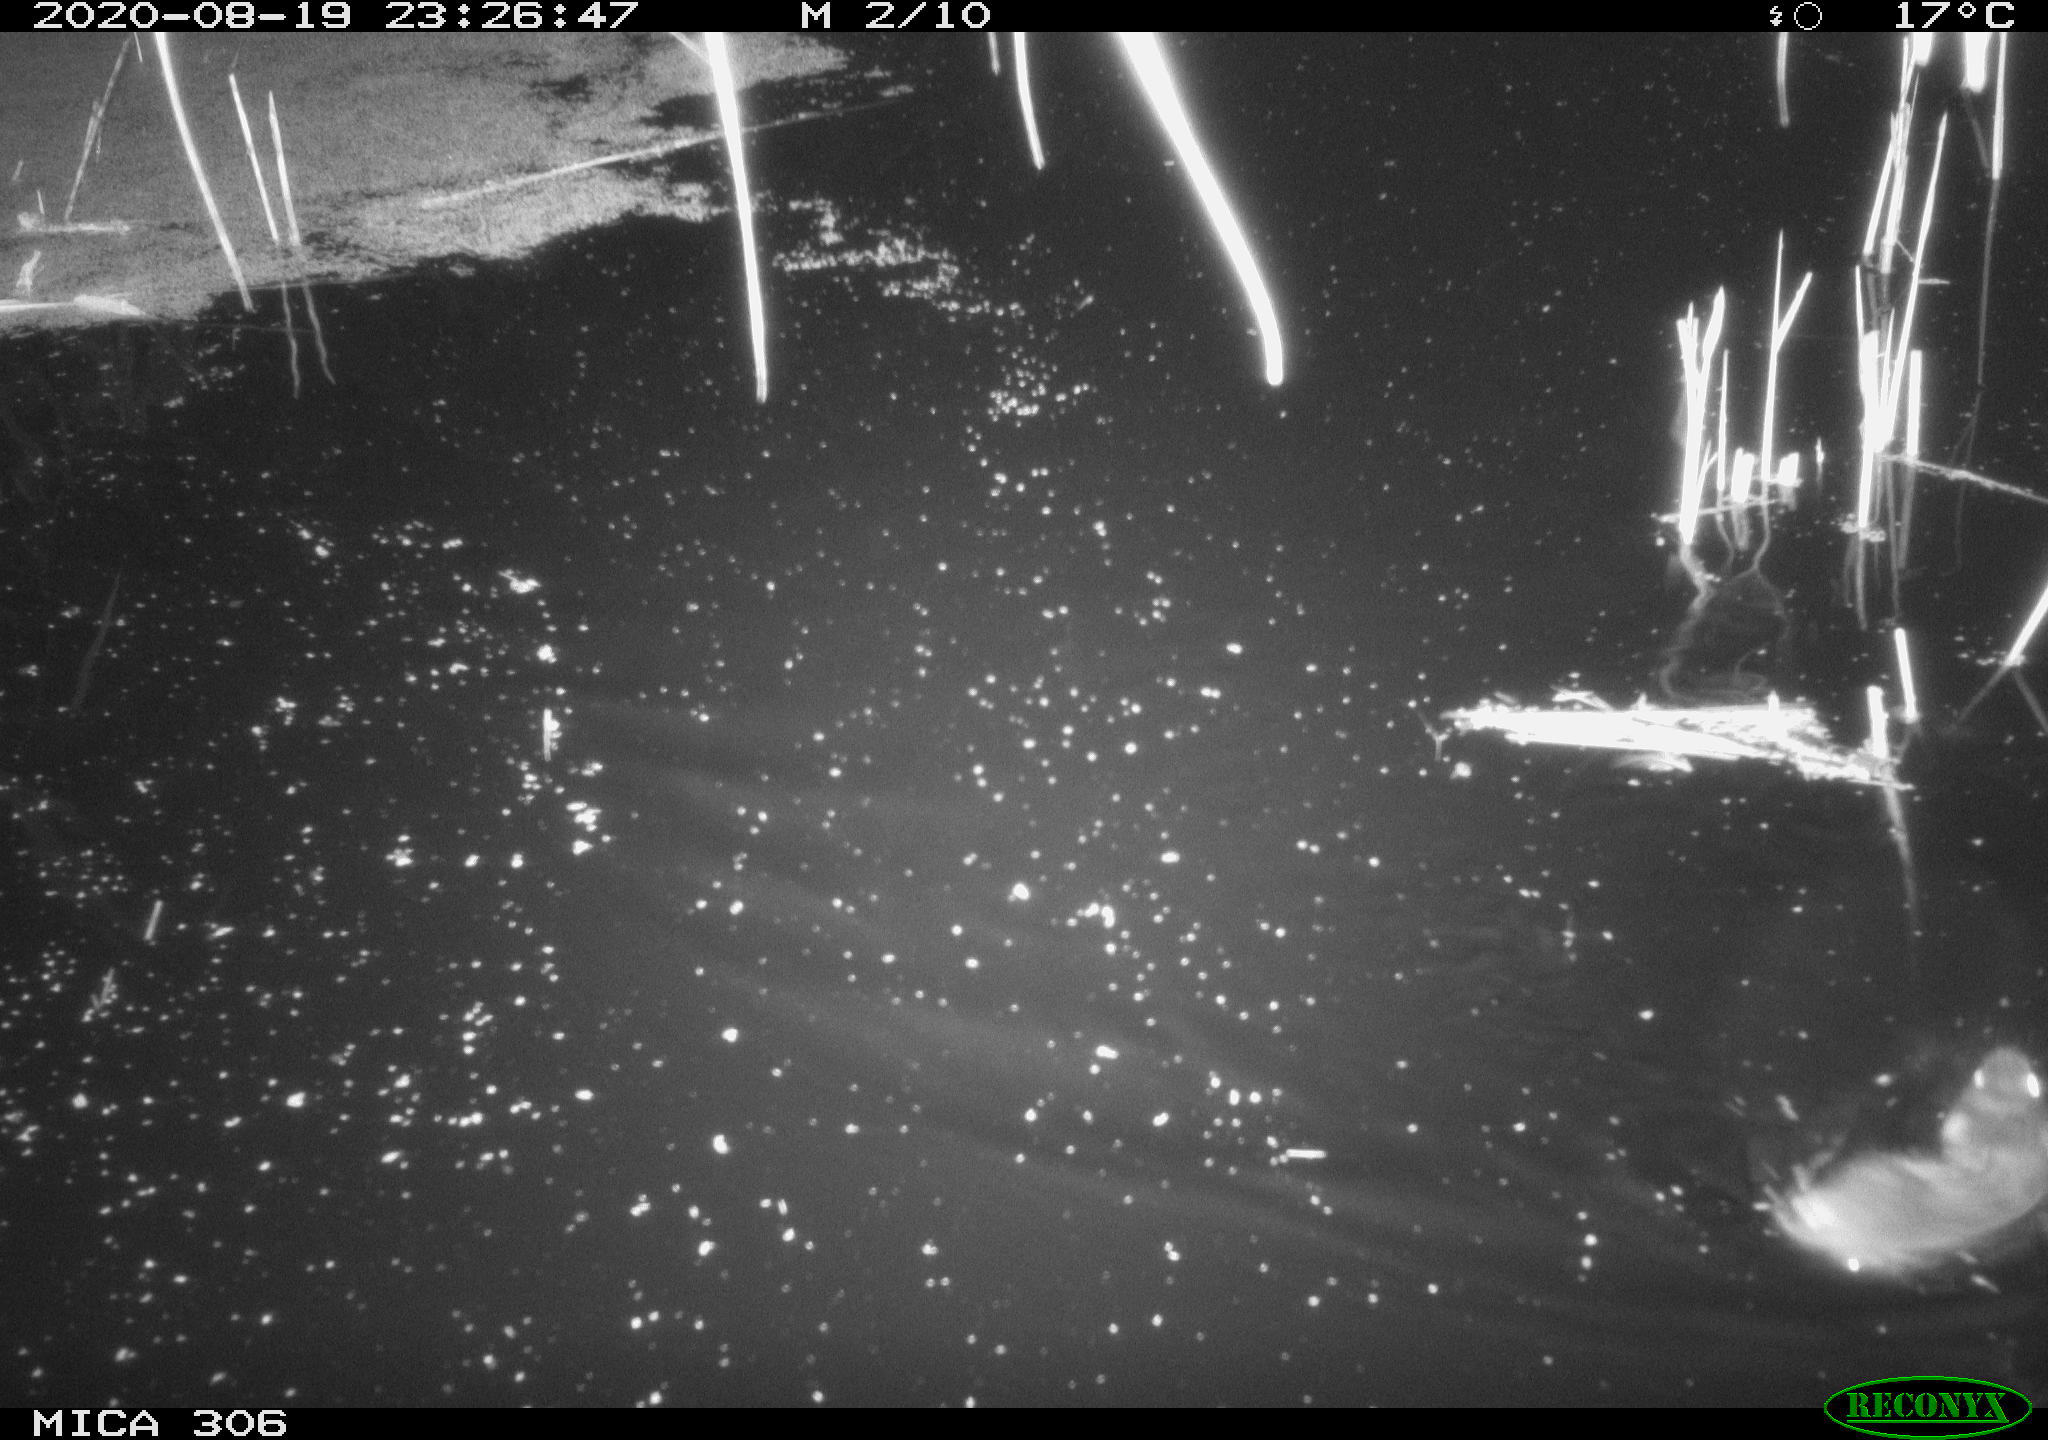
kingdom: Animalia
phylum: Chordata
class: Mammalia
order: Rodentia
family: Muridae
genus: Rattus
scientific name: Rattus norvegicus
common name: Brown rat
